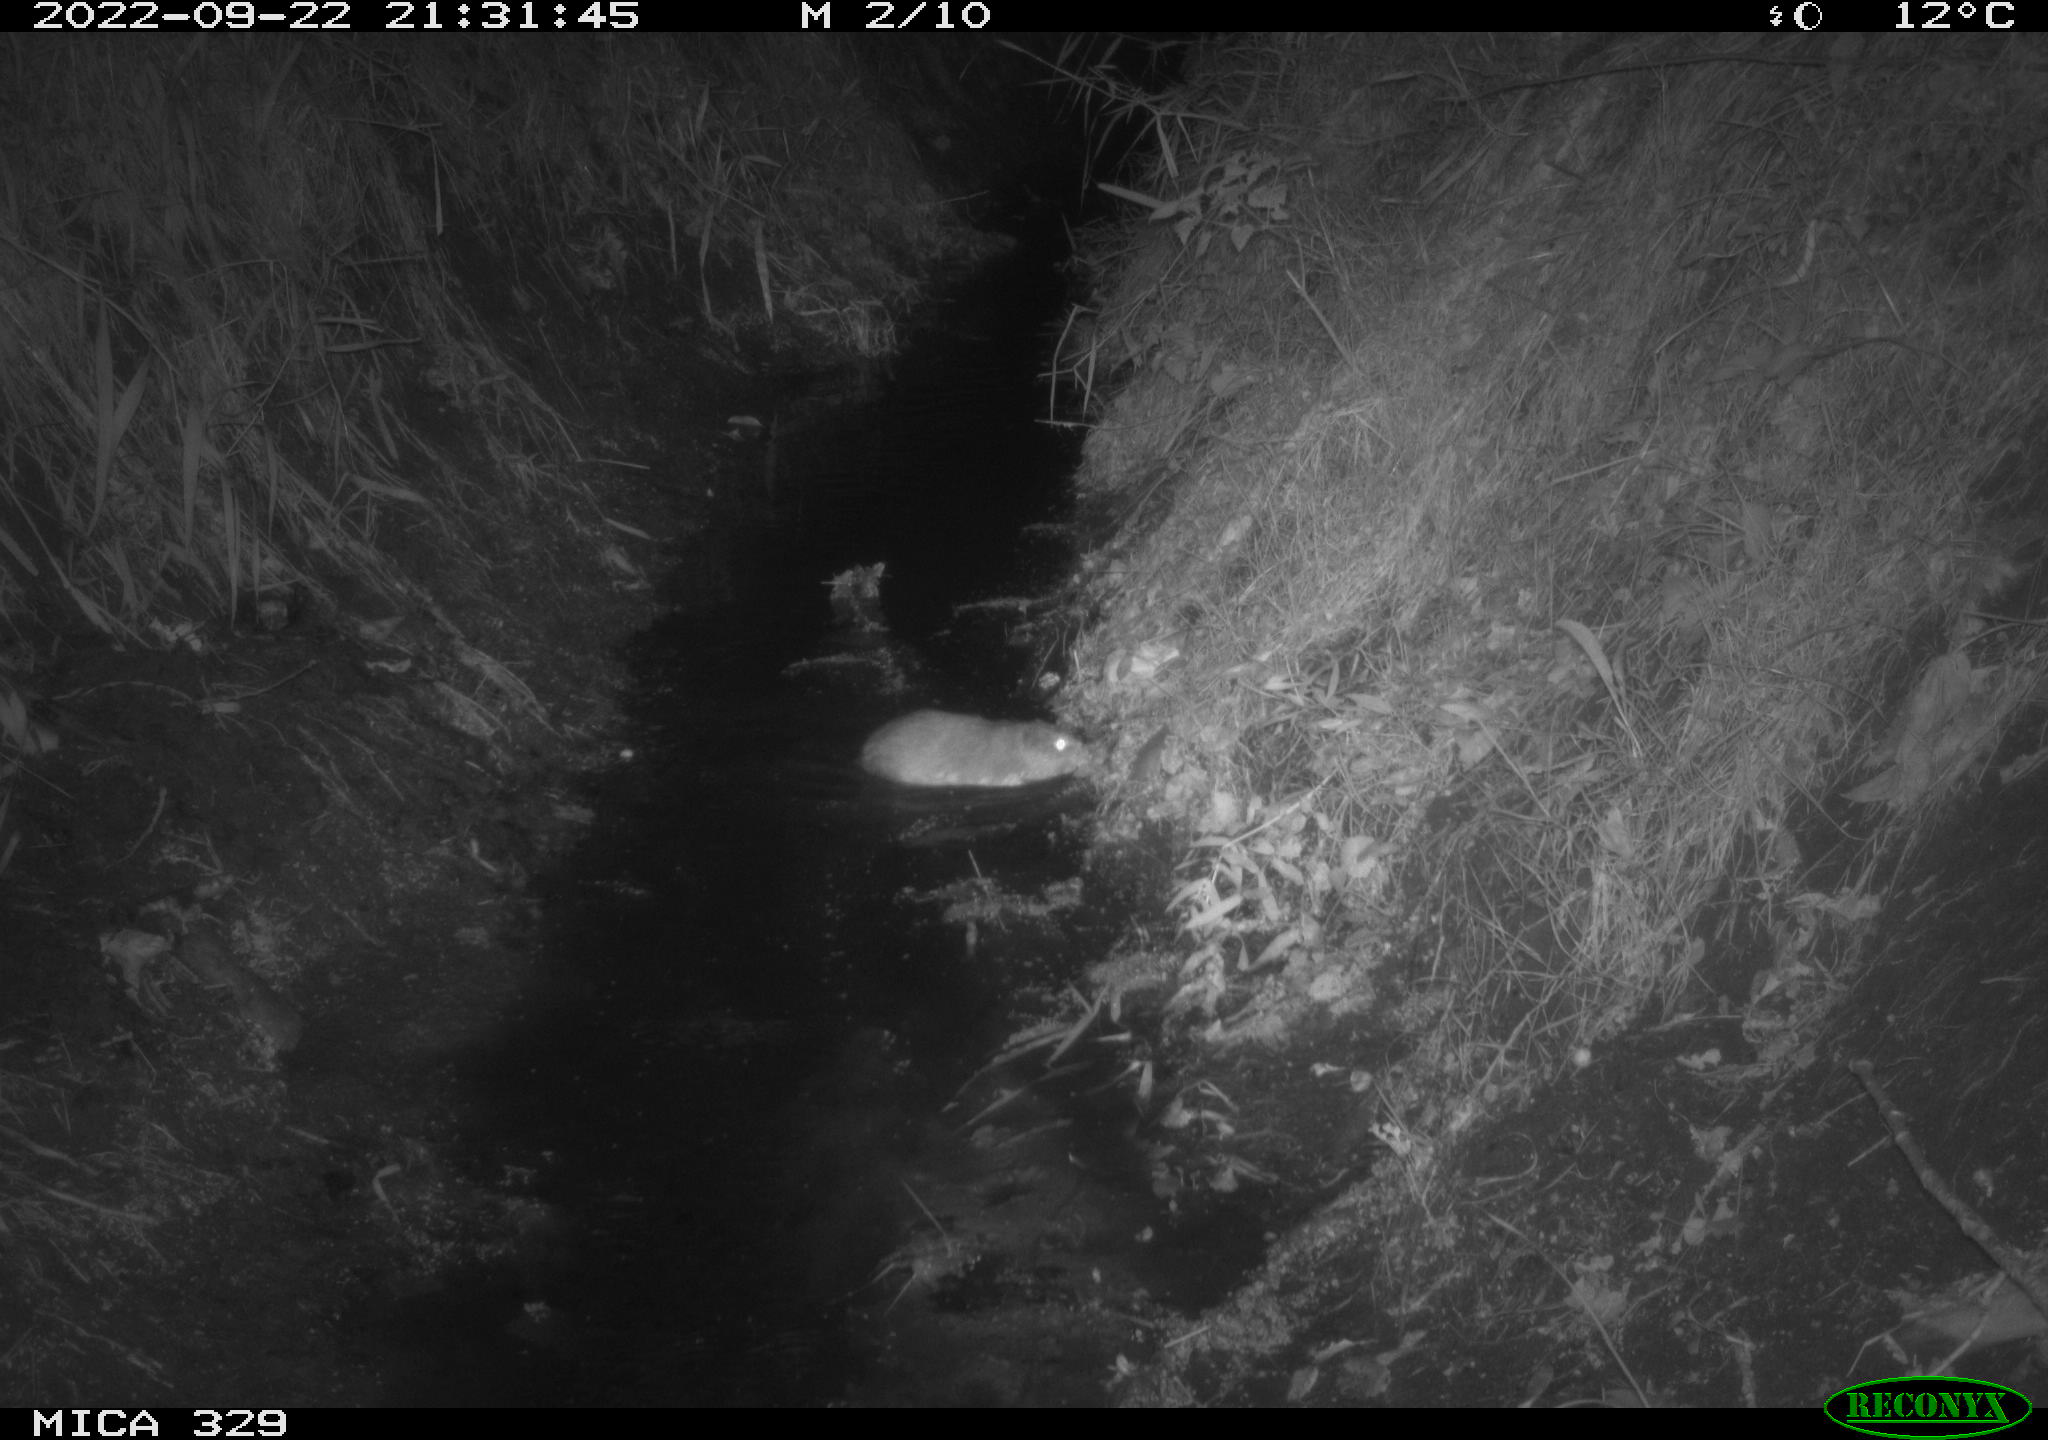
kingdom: Animalia
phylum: Chordata
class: Mammalia
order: Rodentia
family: Cricetidae
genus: Ondatra
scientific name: Ondatra zibethicus
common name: Muskrat
